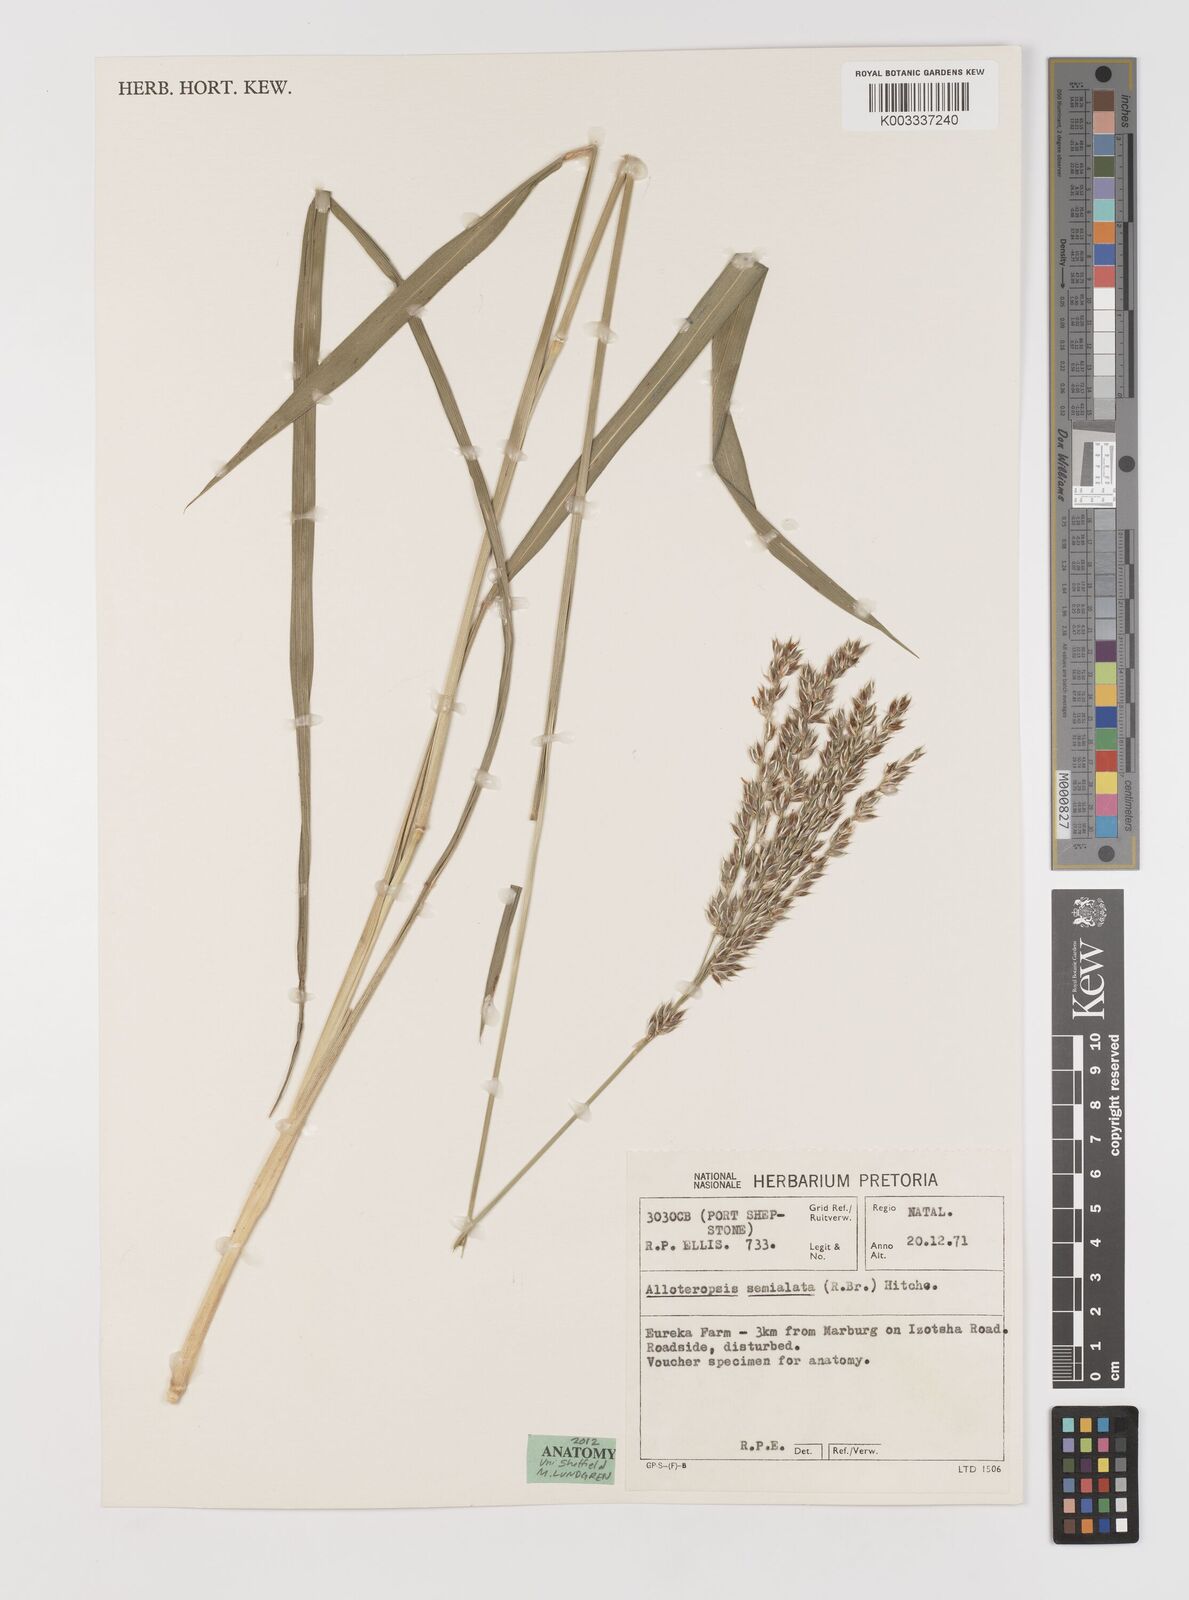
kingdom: Plantae
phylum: Tracheophyta
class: Liliopsida
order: Poales
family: Poaceae
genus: Alloteropsis
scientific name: Alloteropsis semialata
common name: Cockatoo grass
